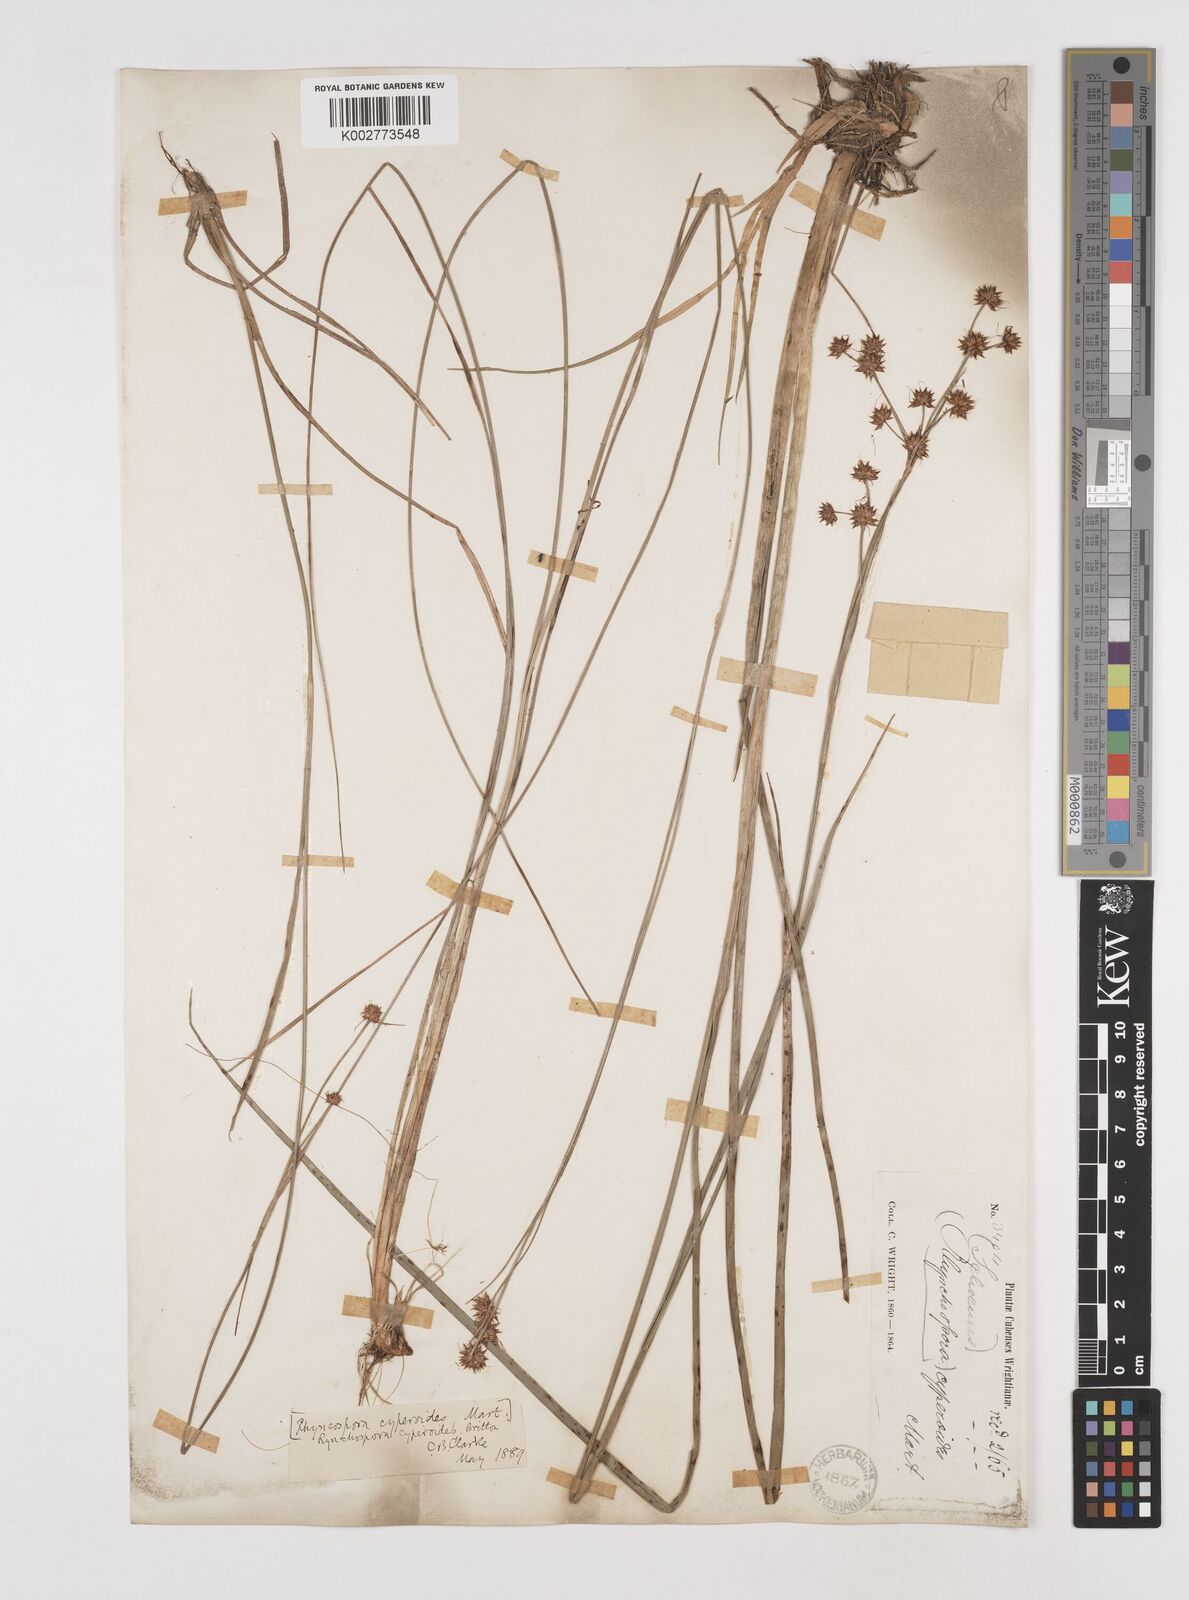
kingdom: Plantae
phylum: Tracheophyta
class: Liliopsida
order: Poales
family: Cyperaceae
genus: Rhynchospora
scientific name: Rhynchospora holoschoenoides
